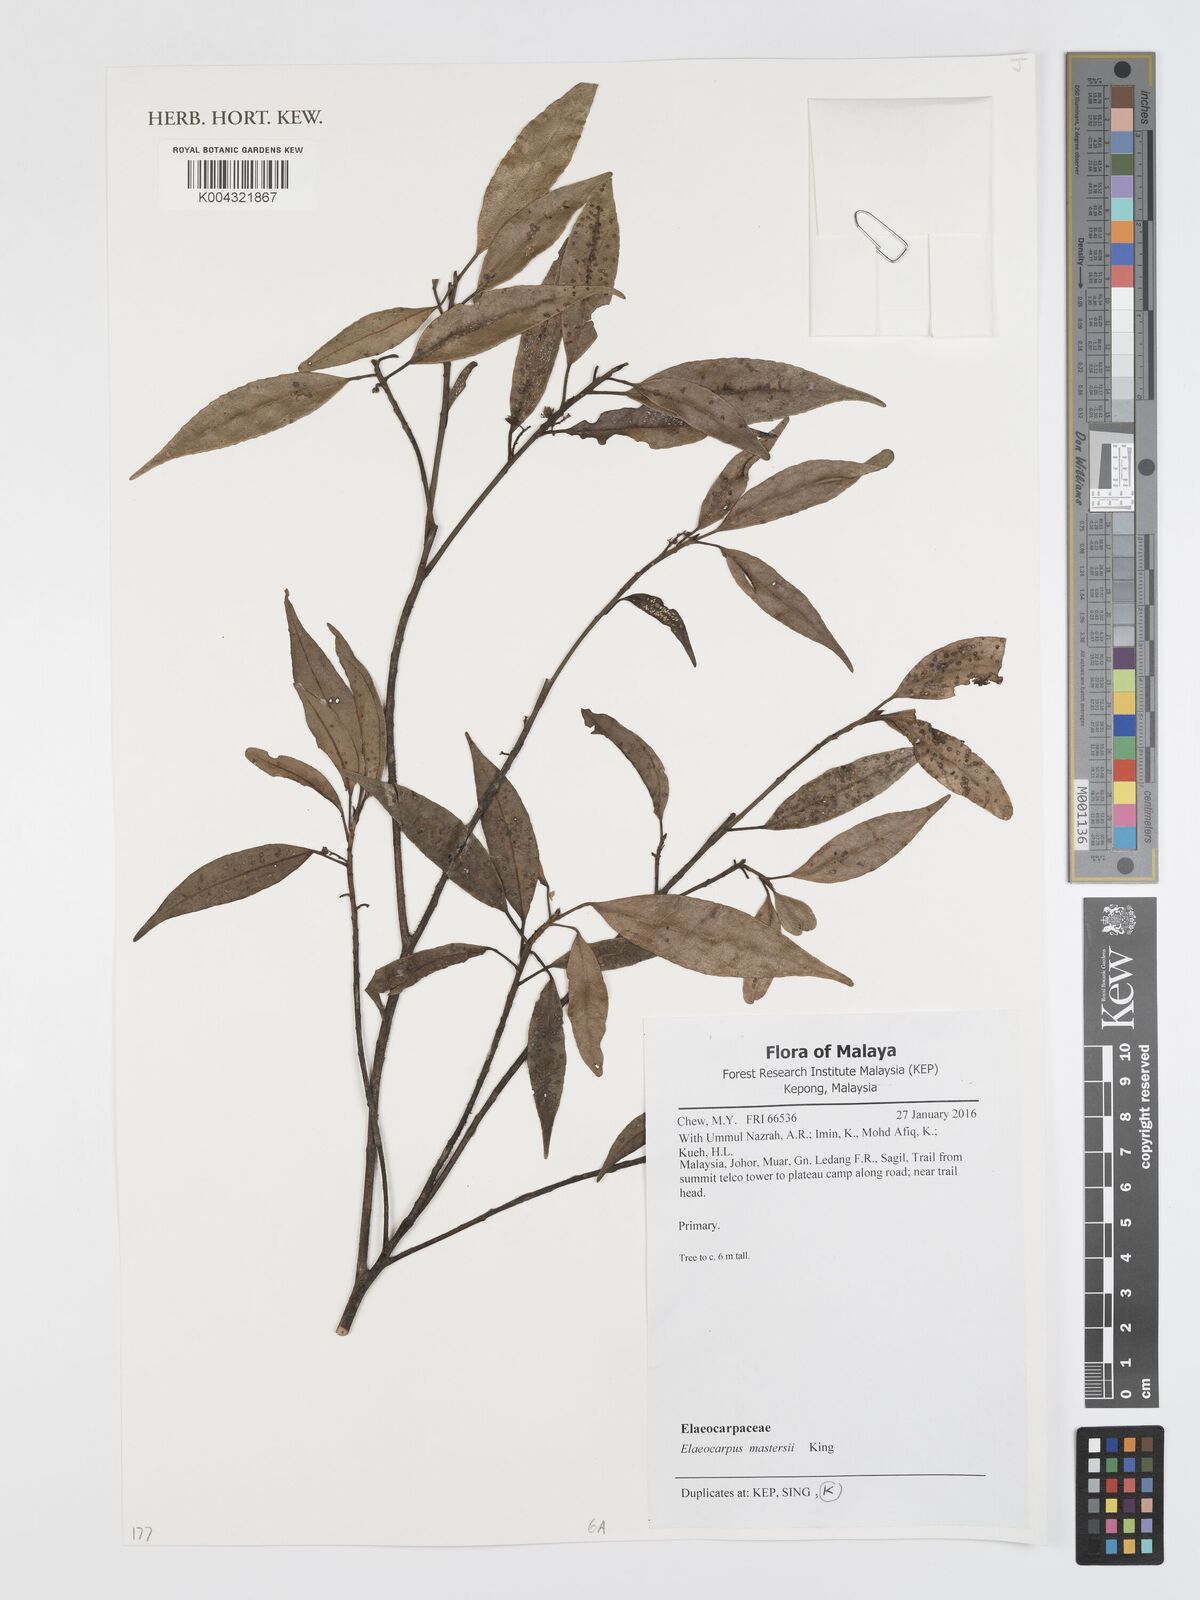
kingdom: Plantae
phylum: Tracheophyta
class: Magnoliopsida
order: Oxalidales
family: Elaeocarpaceae
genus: Elaeocarpus
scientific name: Elaeocarpus mastersii
